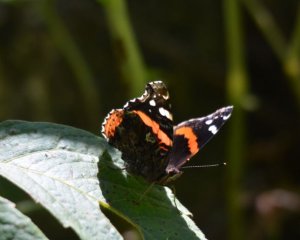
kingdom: Animalia
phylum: Arthropoda
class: Insecta
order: Lepidoptera
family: Nymphalidae
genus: Vanessa
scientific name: Vanessa atalanta
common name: Red Admiral
